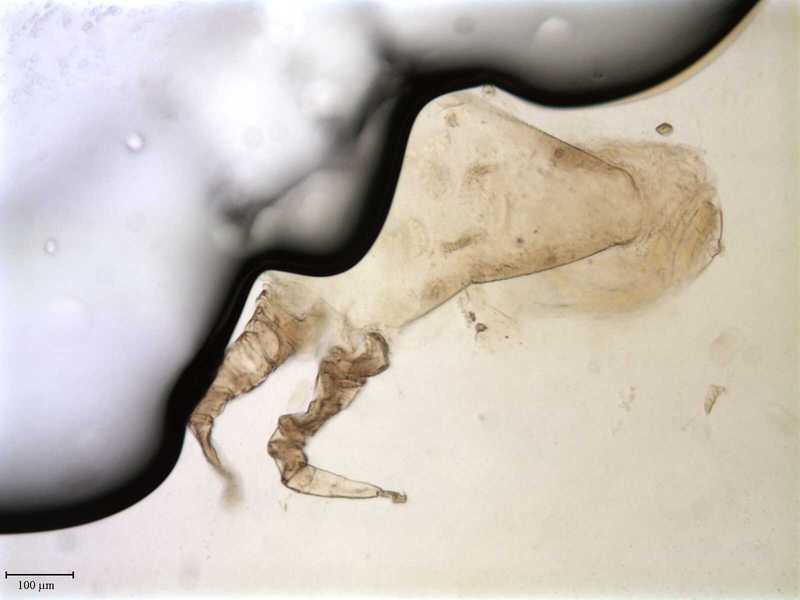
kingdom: Animalia
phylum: Arthropoda
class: Arachnida
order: Mesostigmata
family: Entonyssidae
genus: Entophionyssus
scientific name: Entophionyssus glasmacheri
